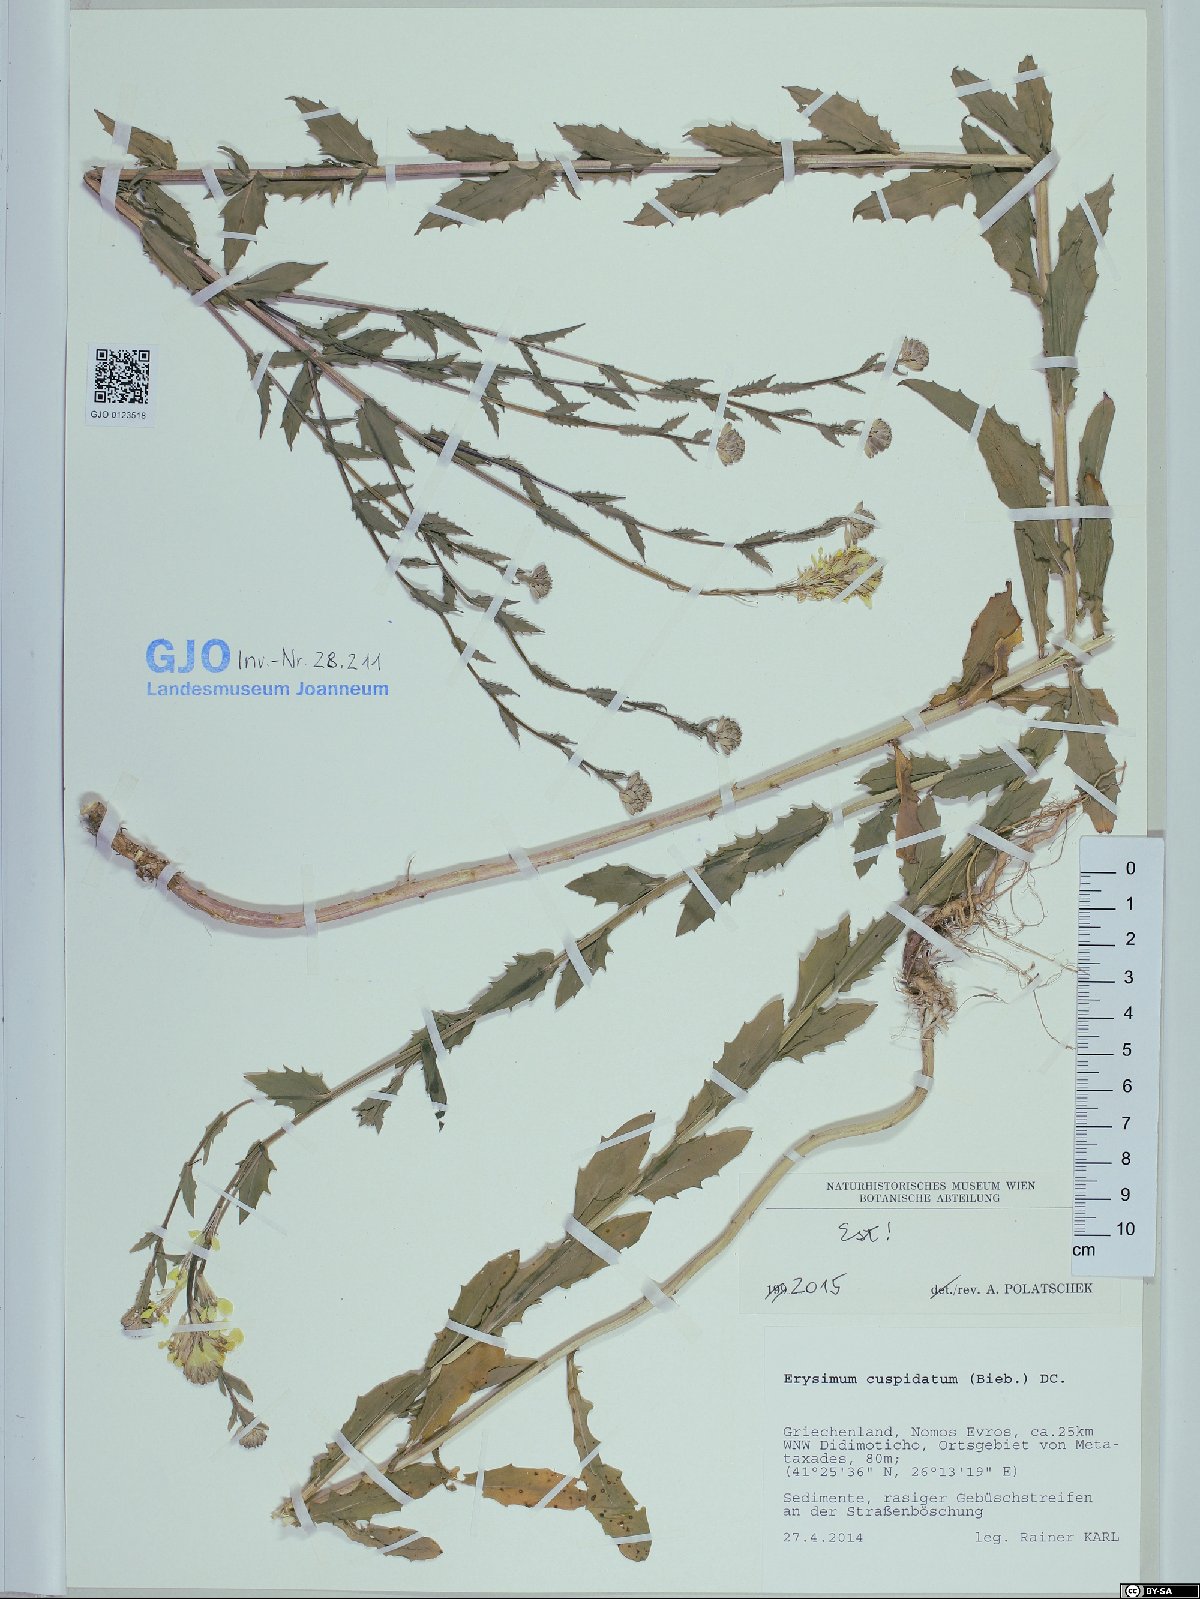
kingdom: Plantae
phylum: Tracheophyta
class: Magnoliopsida
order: Brassicales
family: Brassicaceae
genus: Erysimum
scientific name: Erysimum cuspidatum
